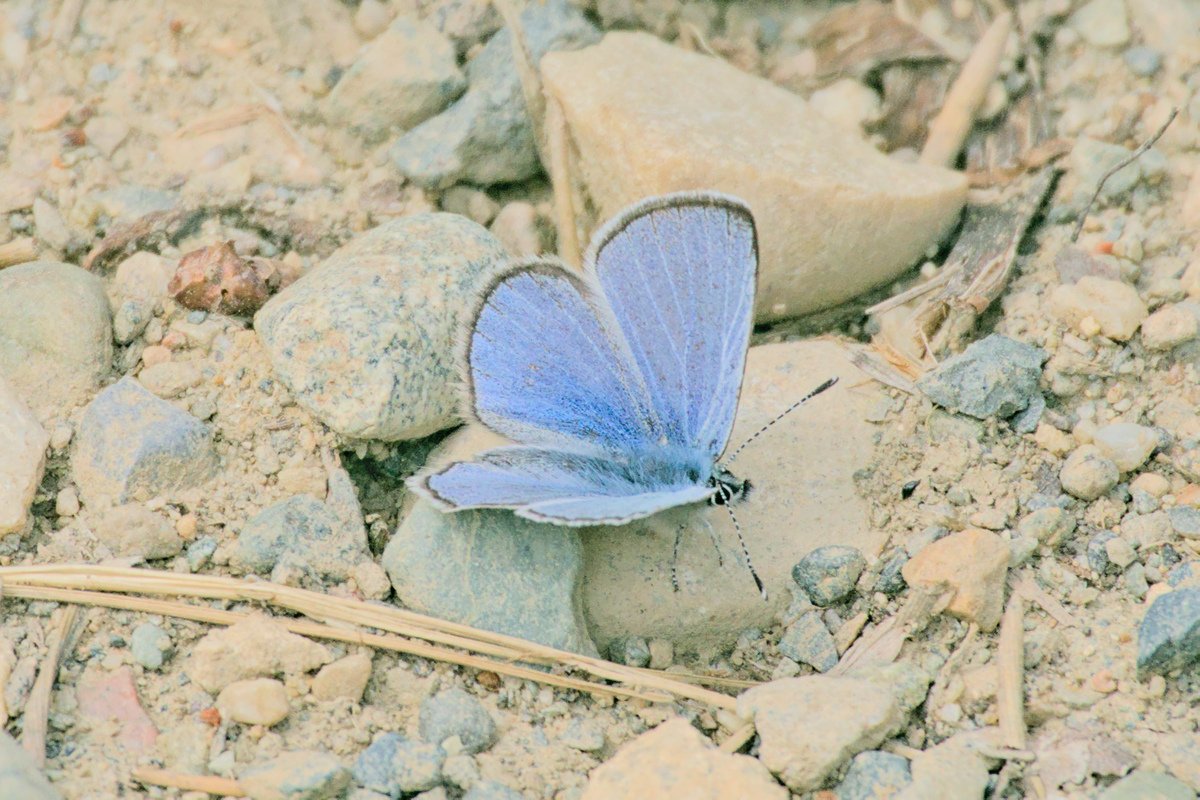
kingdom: Animalia
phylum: Arthropoda
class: Insecta
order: Lepidoptera
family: Lycaenidae
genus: Glaucopsyche
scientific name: Glaucopsyche lygdamus
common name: Silvery Blue
